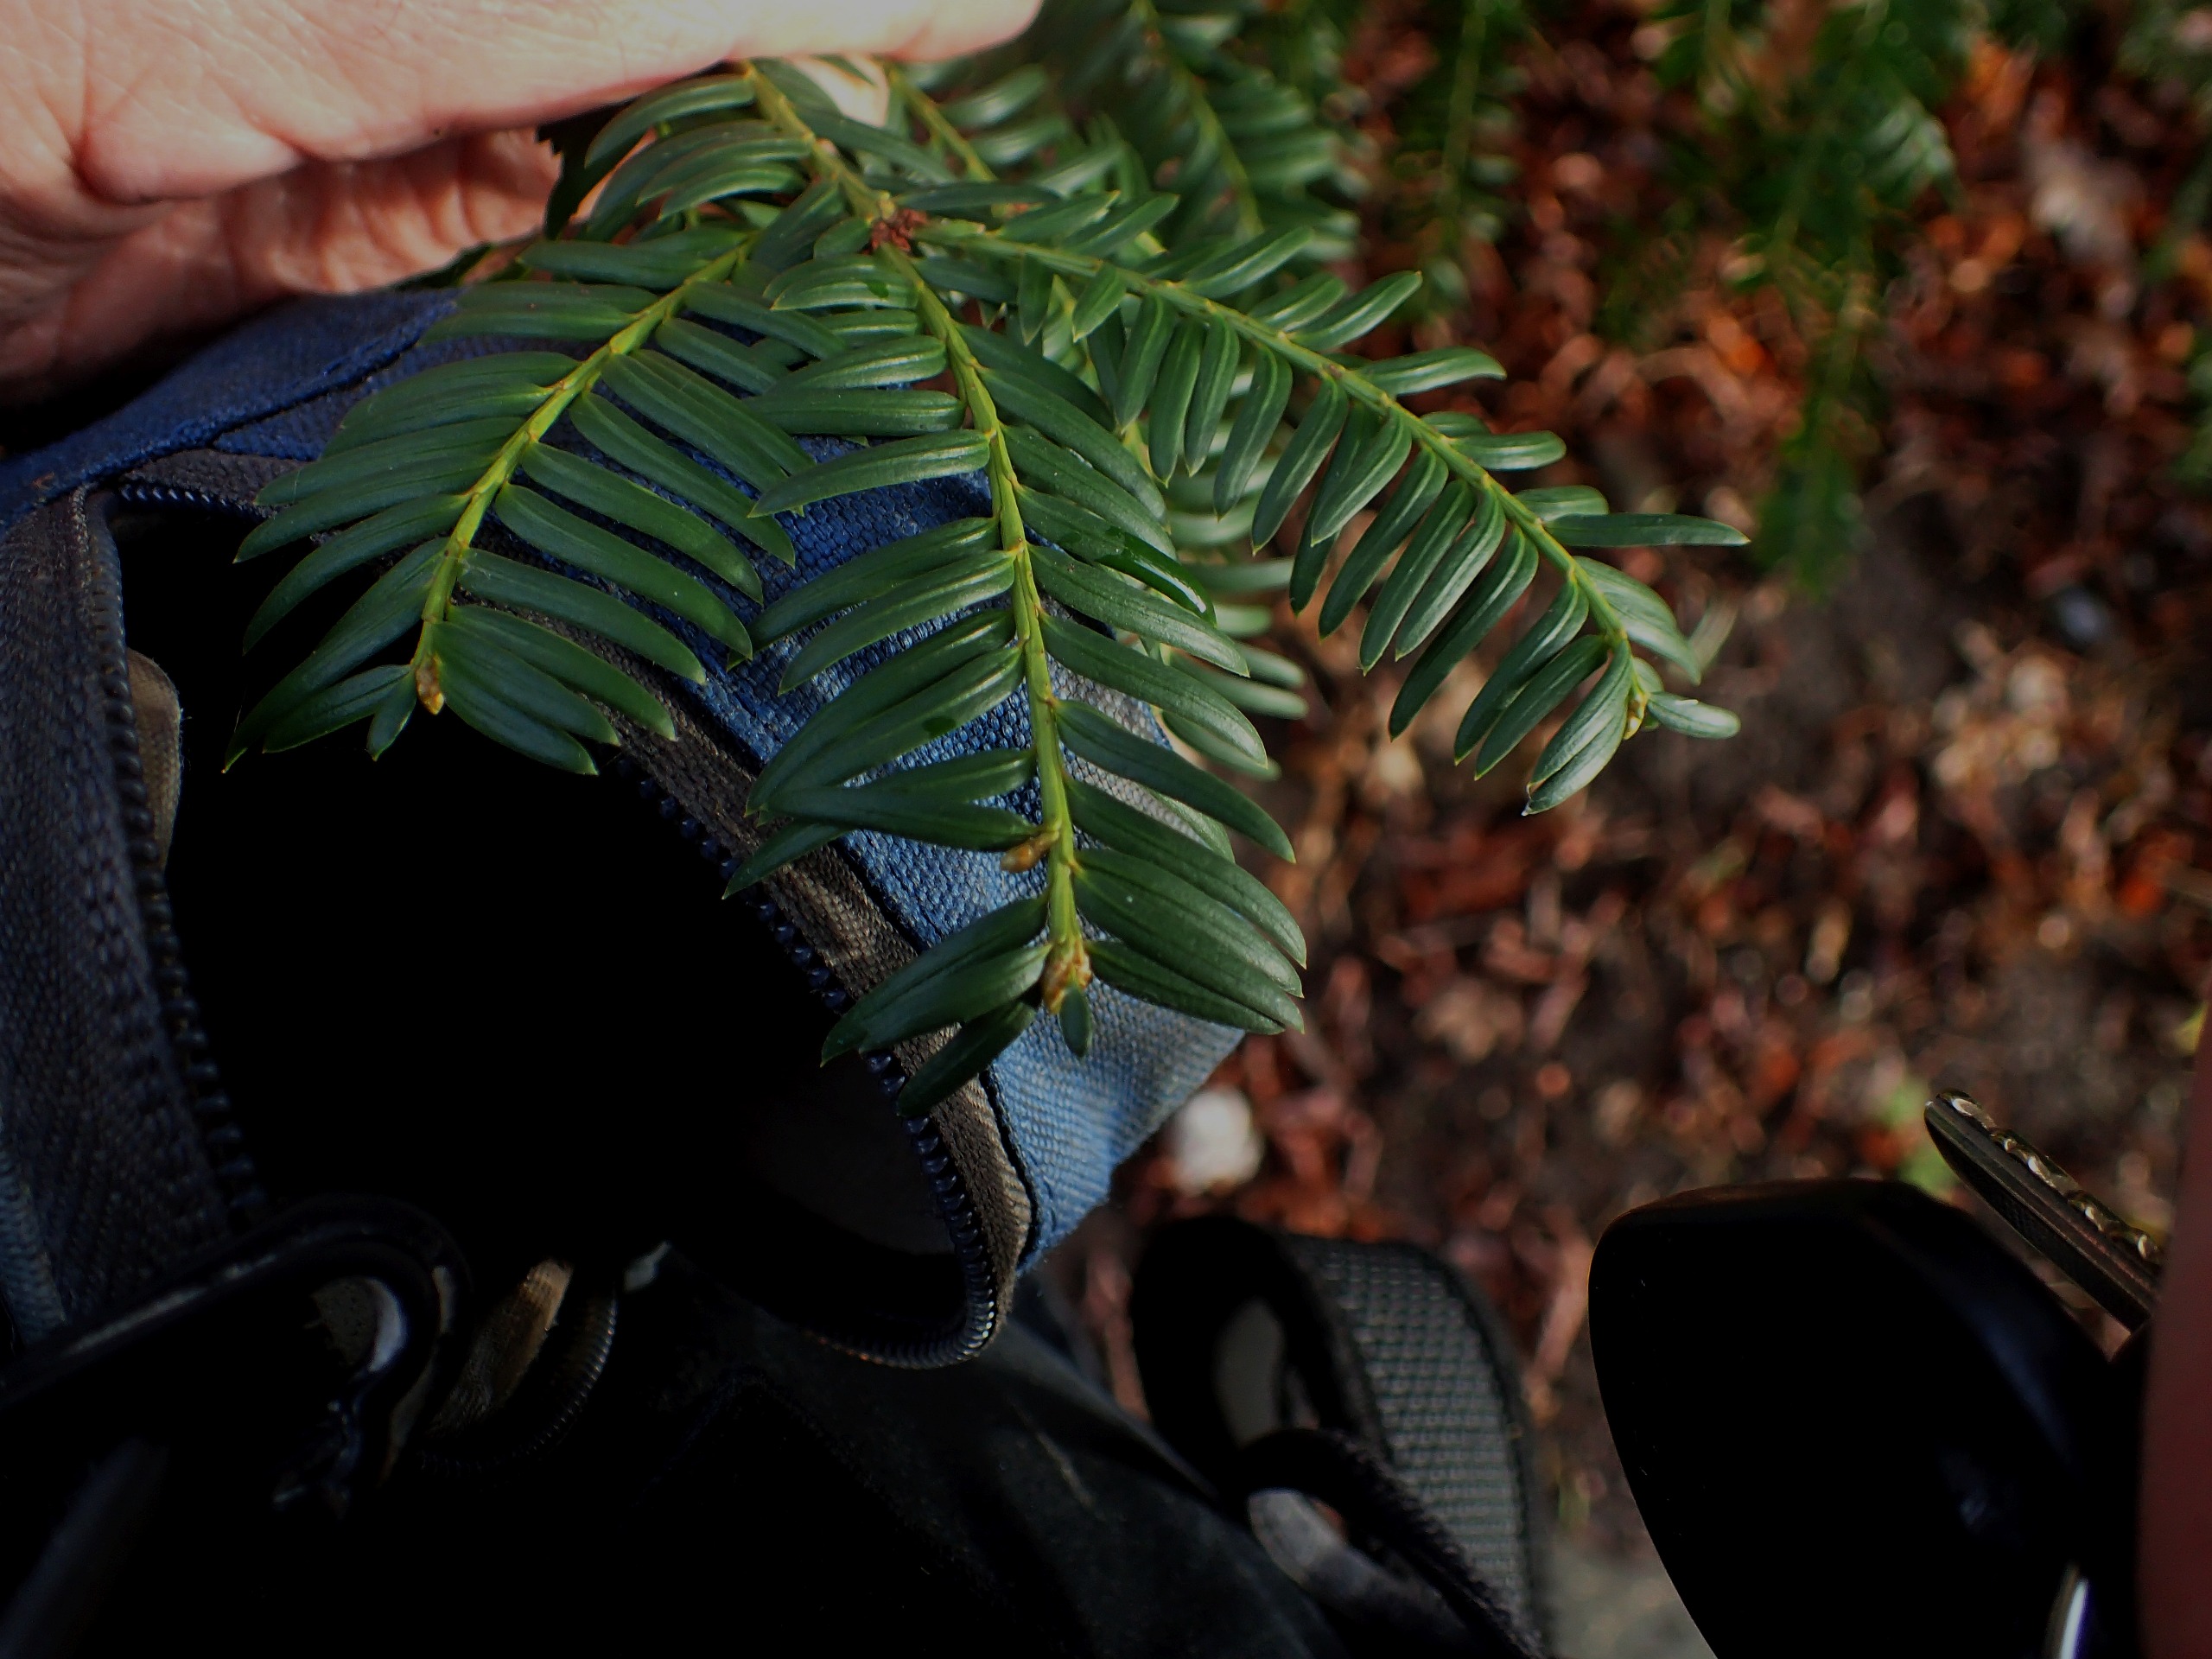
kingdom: Plantae
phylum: Tracheophyta
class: Pinopsida
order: Pinales
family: Taxaceae
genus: Taxus
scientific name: Taxus baccata
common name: Almindelig taks
